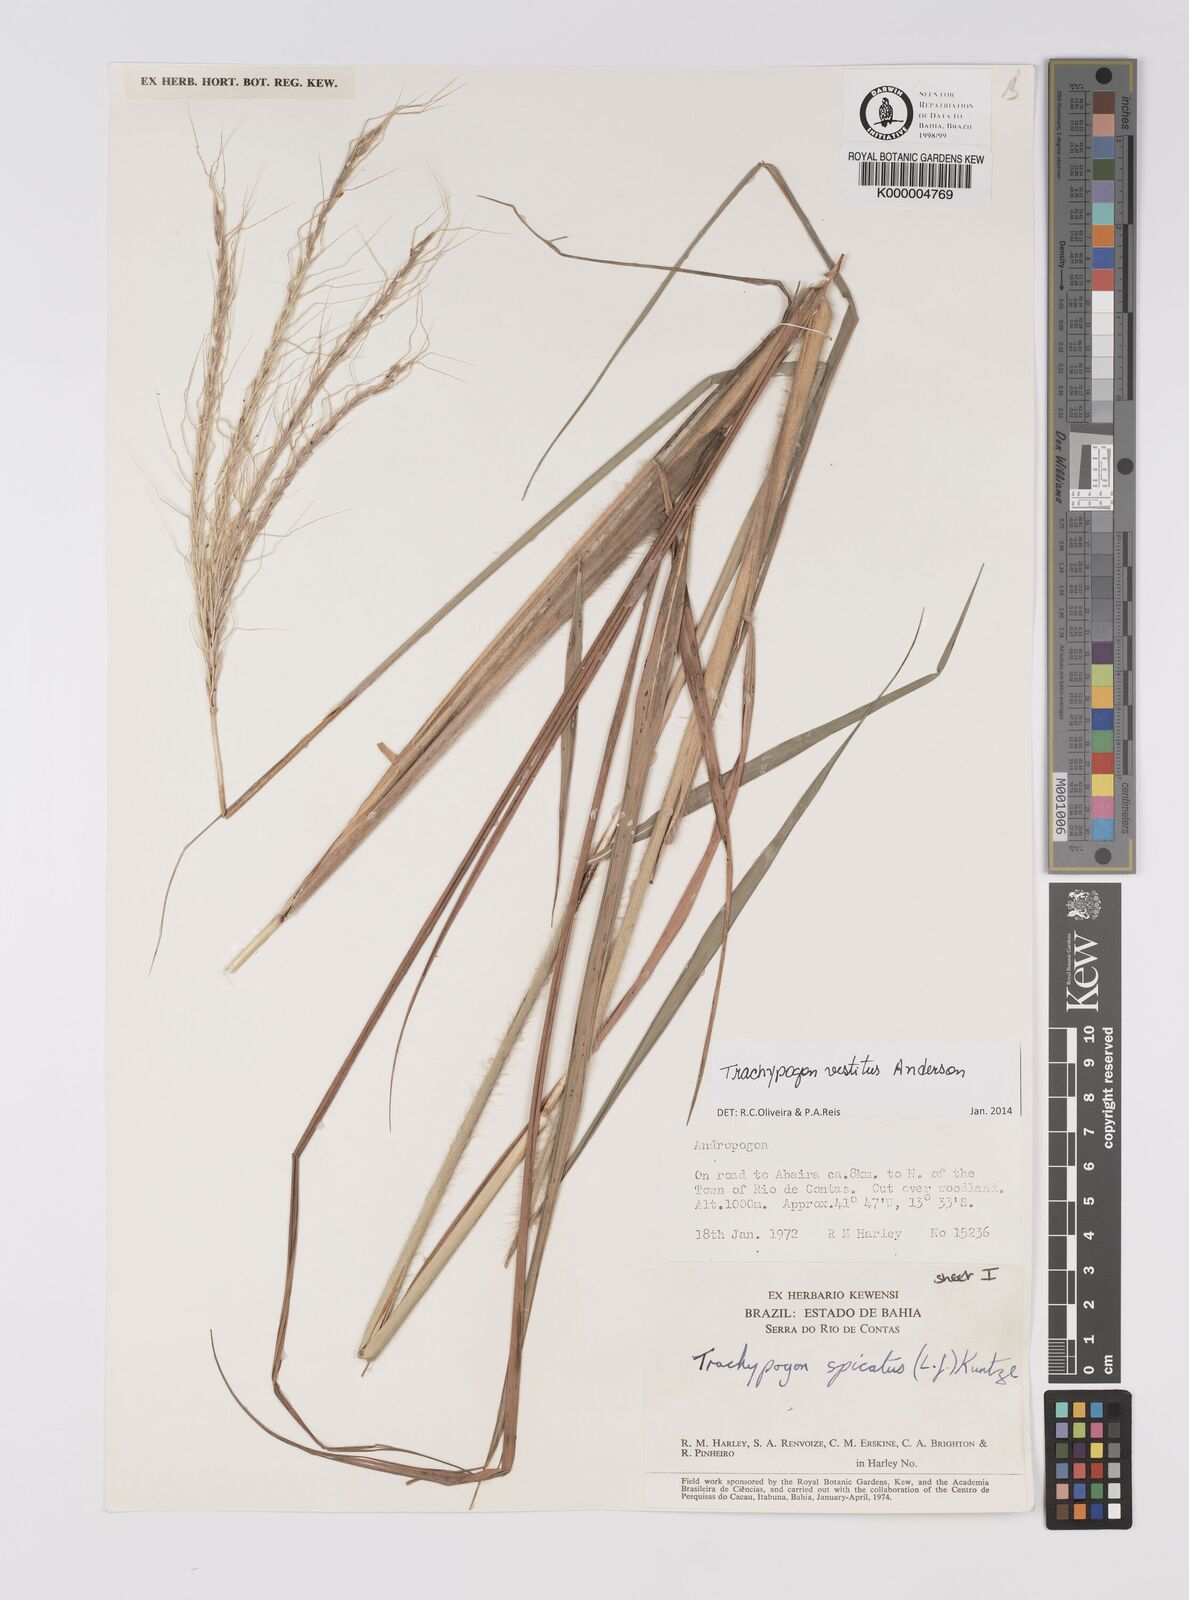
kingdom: Plantae
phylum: Tracheophyta
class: Liliopsida
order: Poales
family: Poaceae
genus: Trachypogon
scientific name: Trachypogon spicatus
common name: Crinkle-awn
